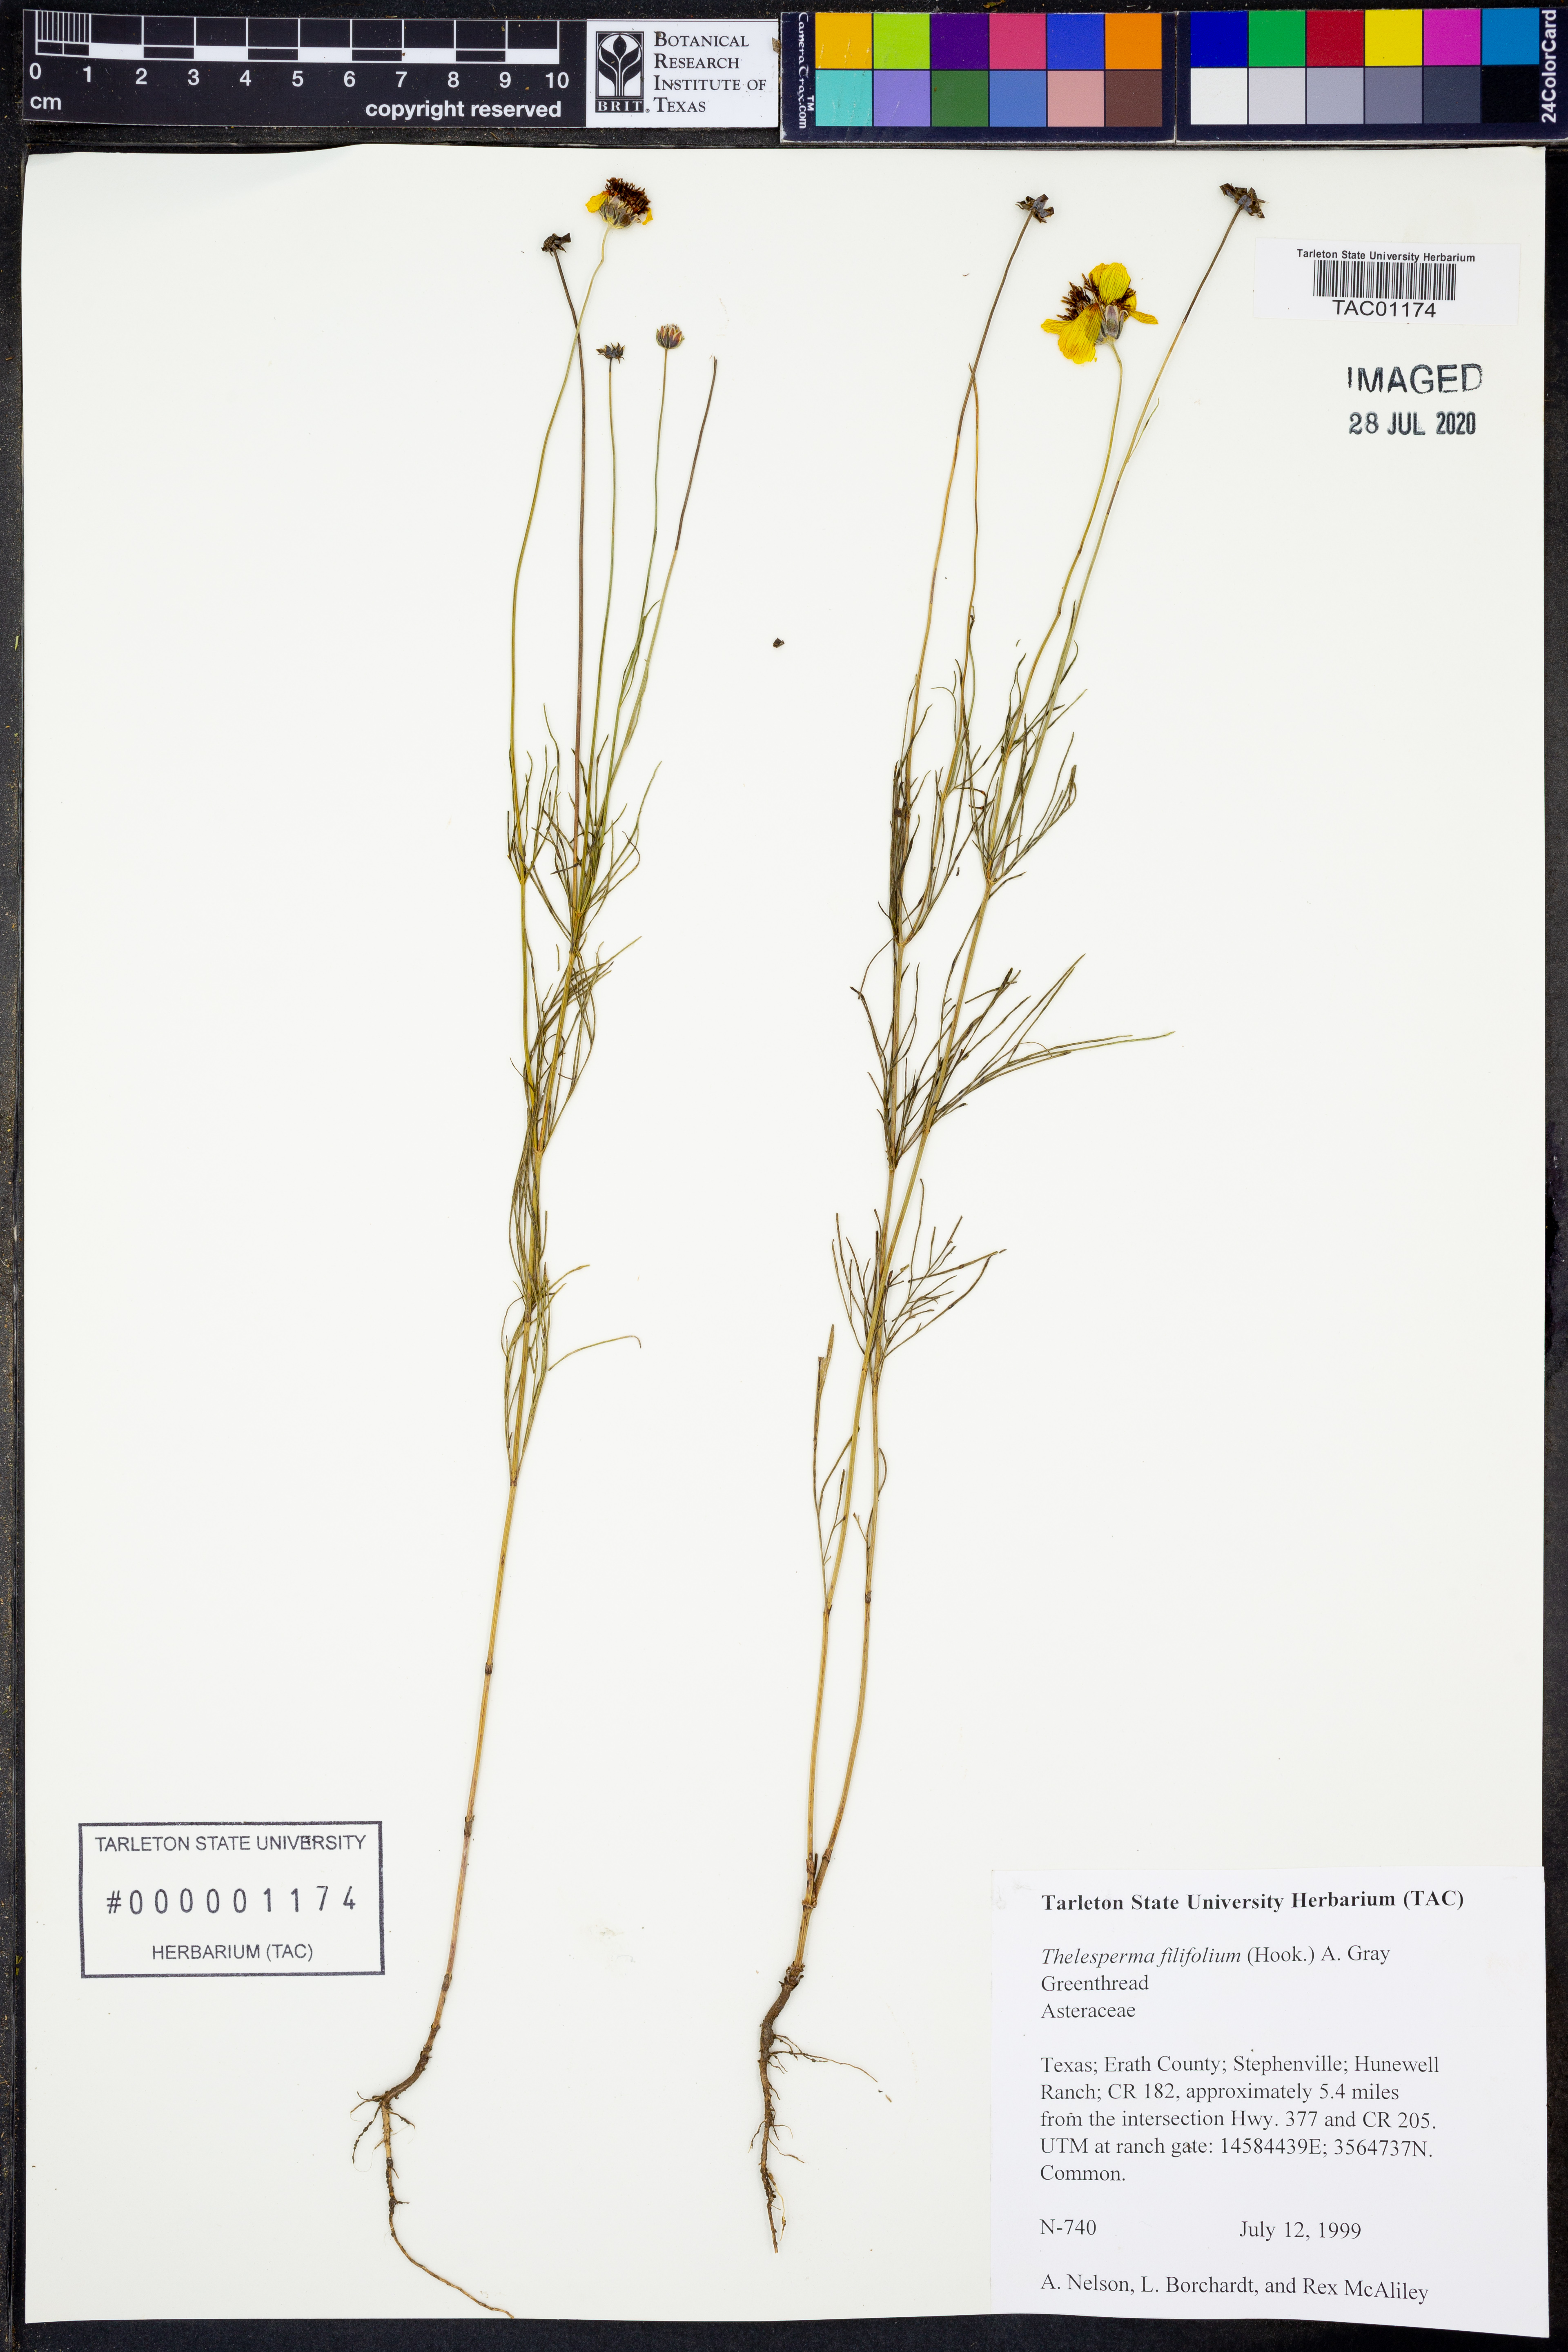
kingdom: Plantae
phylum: Tracheophyta
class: Magnoliopsida
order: Asterales
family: Asteraceae
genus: Thelesperma
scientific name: Thelesperma filifolium
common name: Stiff greenthread
